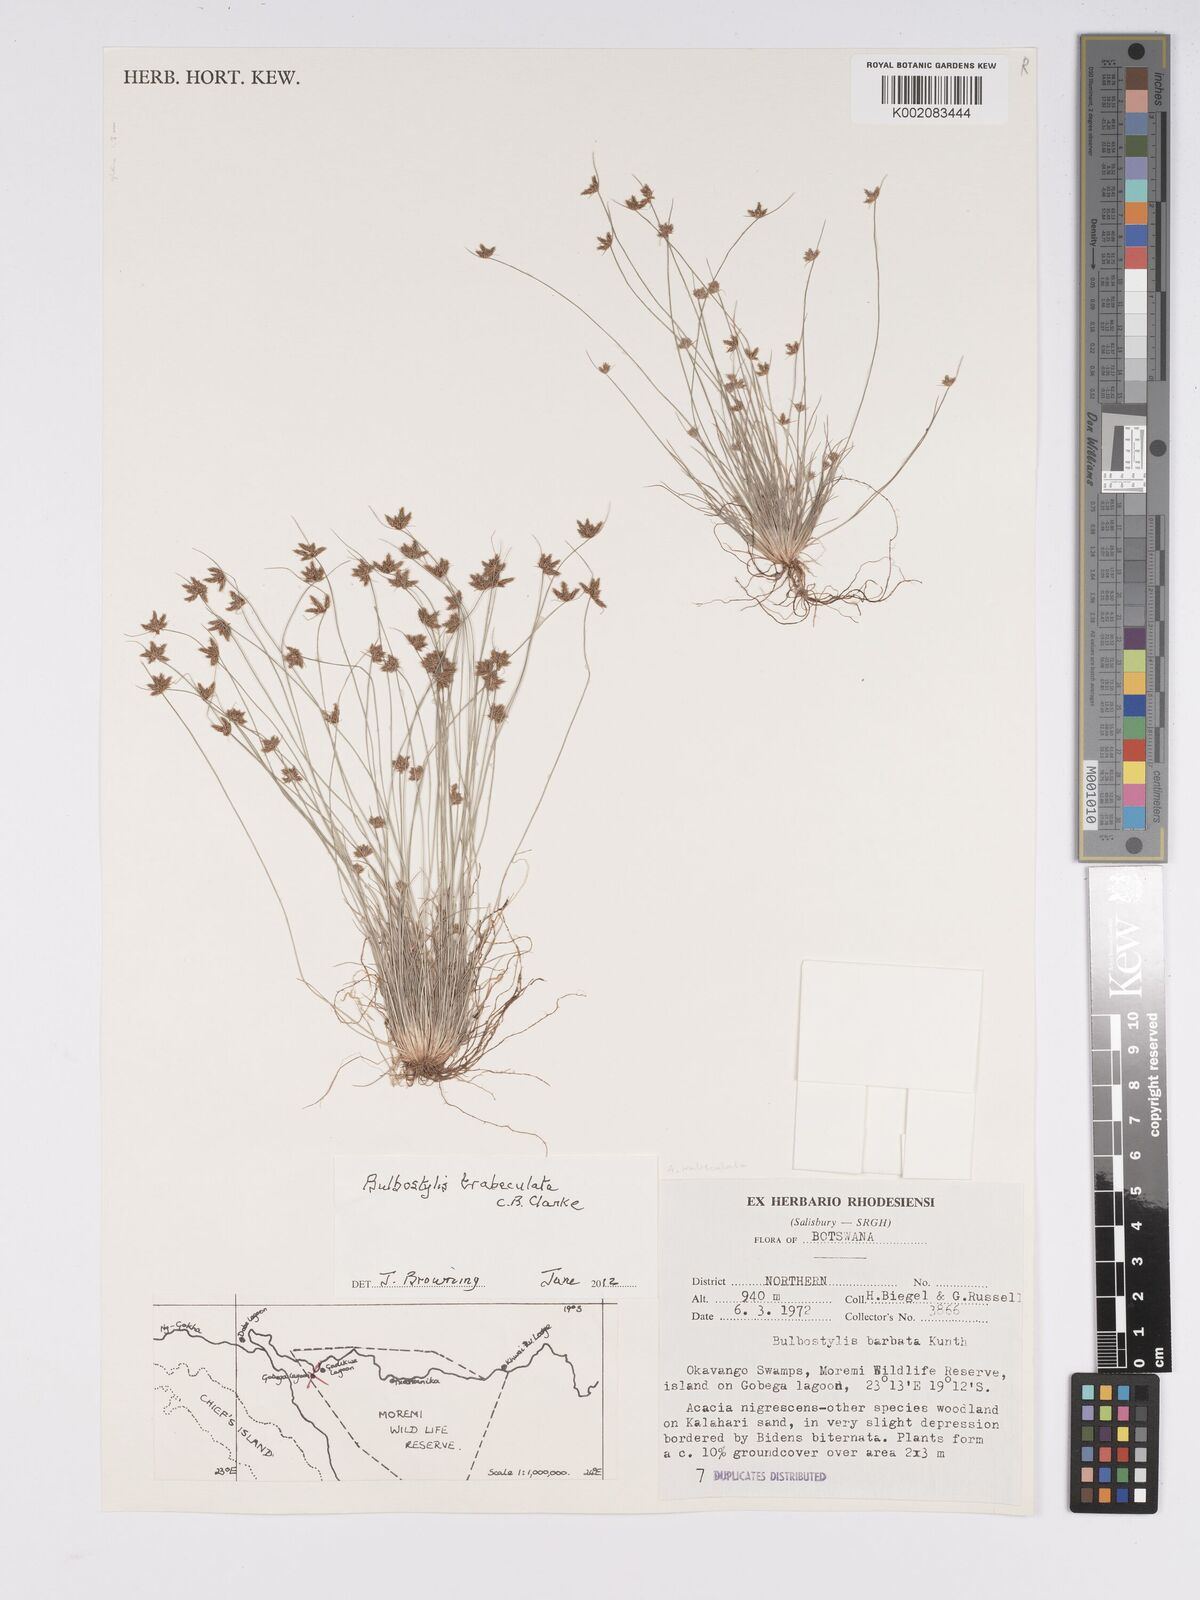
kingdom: Plantae
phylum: Tracheophyta
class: Liliopsida
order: Poales
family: Cyperaceae
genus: Bulbostylis
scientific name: Bulbostylis trabeculata
